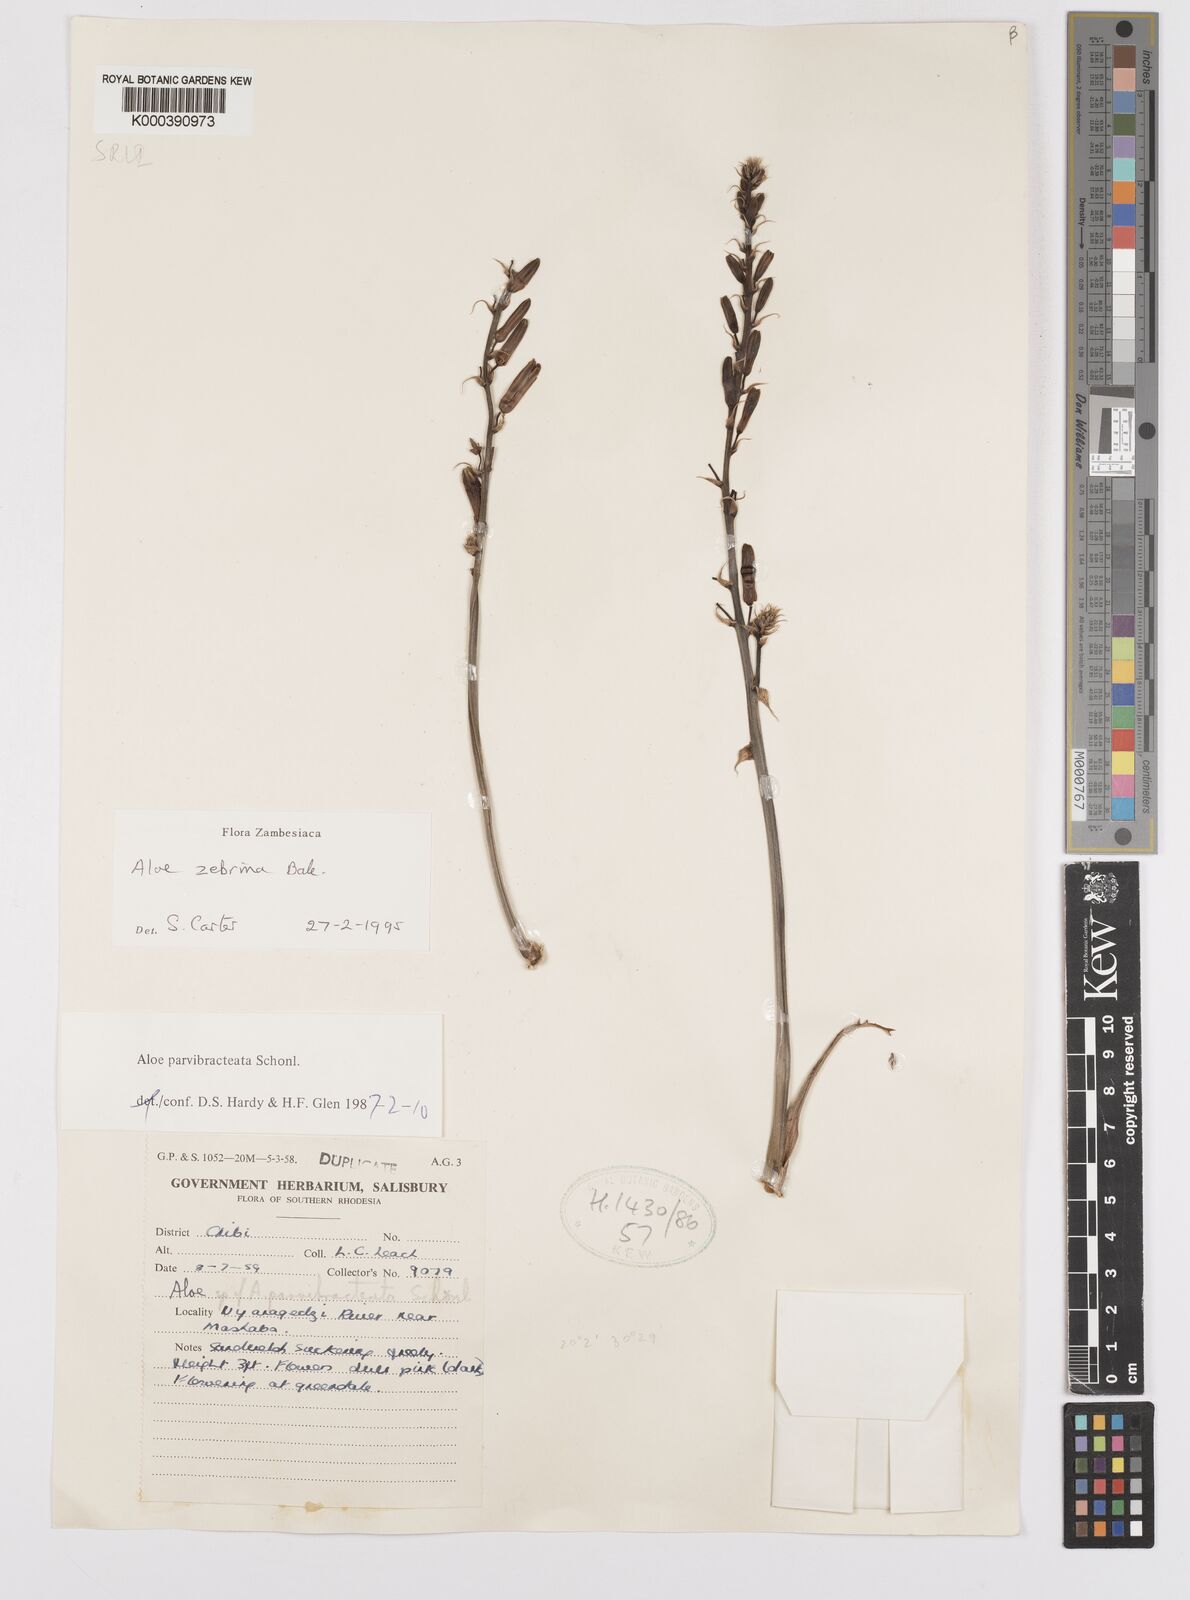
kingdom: Plantae
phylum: Tracheophyta
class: Liliopsida
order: Asparagales
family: Asphodelaceae
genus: Aloe
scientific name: Aloe zebrina
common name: Zebra-leaf aloe
